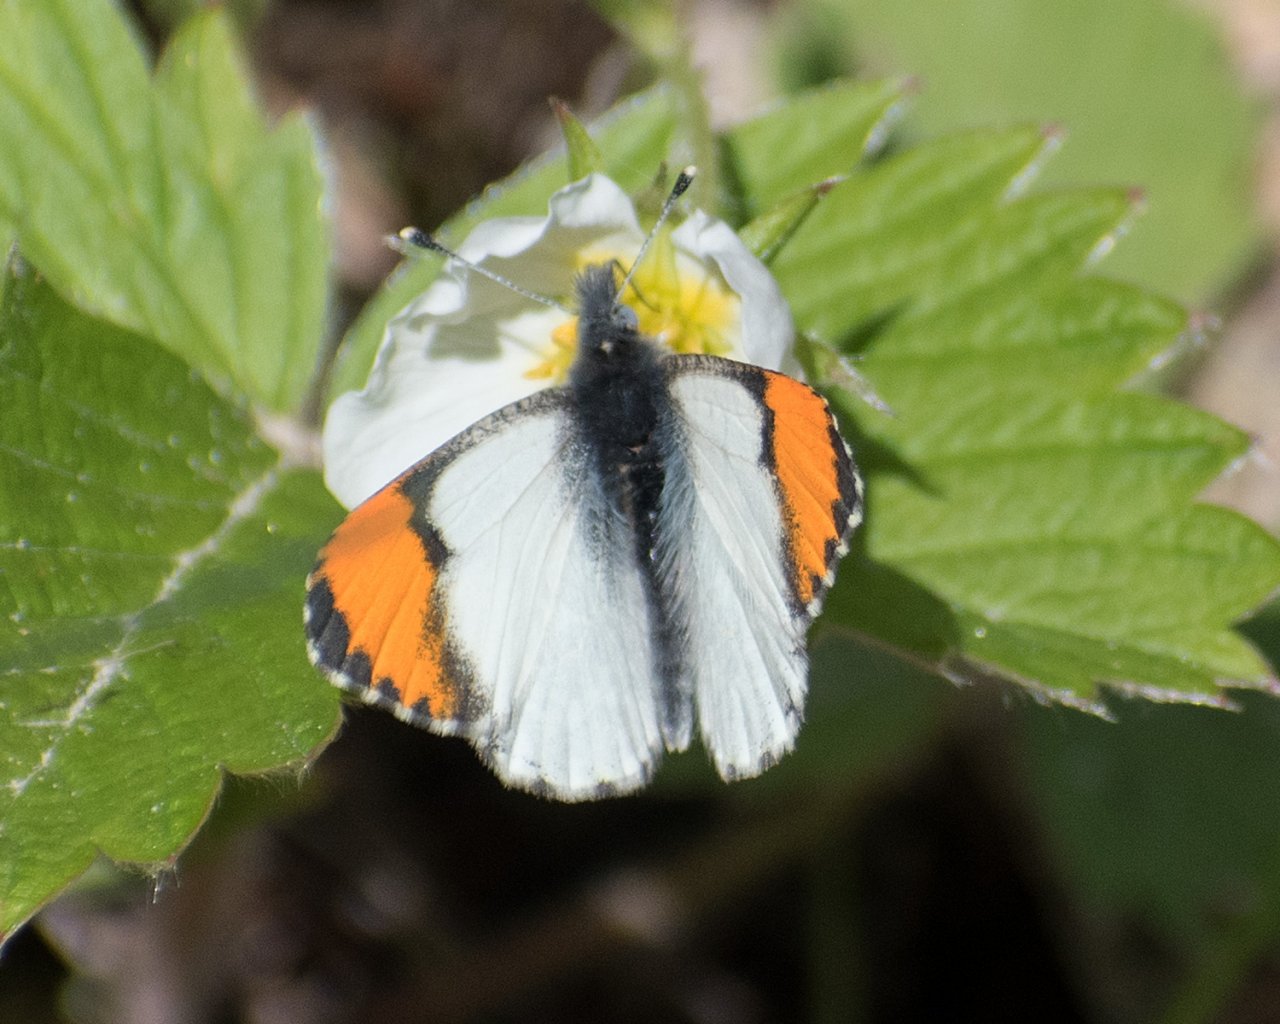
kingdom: Animalia
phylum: Arthropoda
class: Insecta
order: Lepidoptera
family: Pieridae
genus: Anthocharis
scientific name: Anthocharis sara
